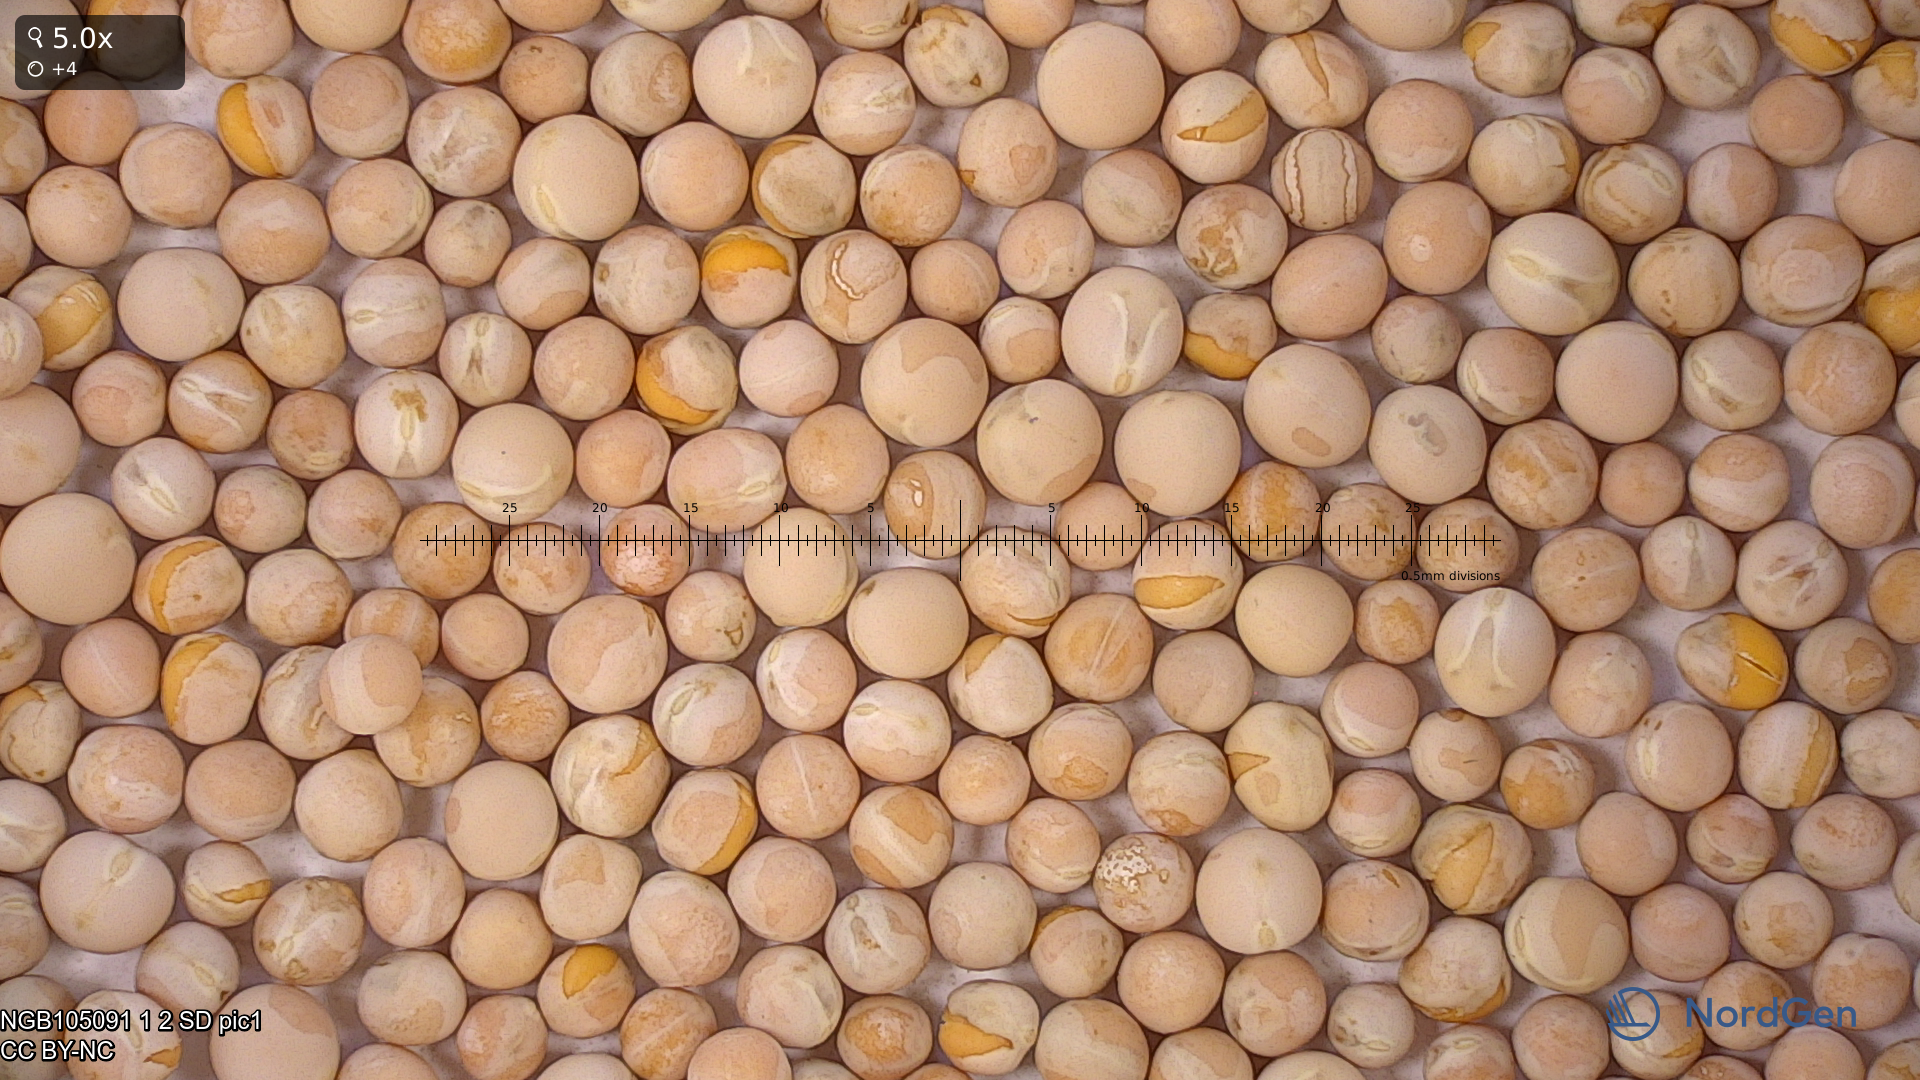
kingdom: Plantae
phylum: Tracheophyta
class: Magnoliopsida
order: Fabales
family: Fabaceae
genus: Lathyrus
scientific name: Lathyrus oleraceus
